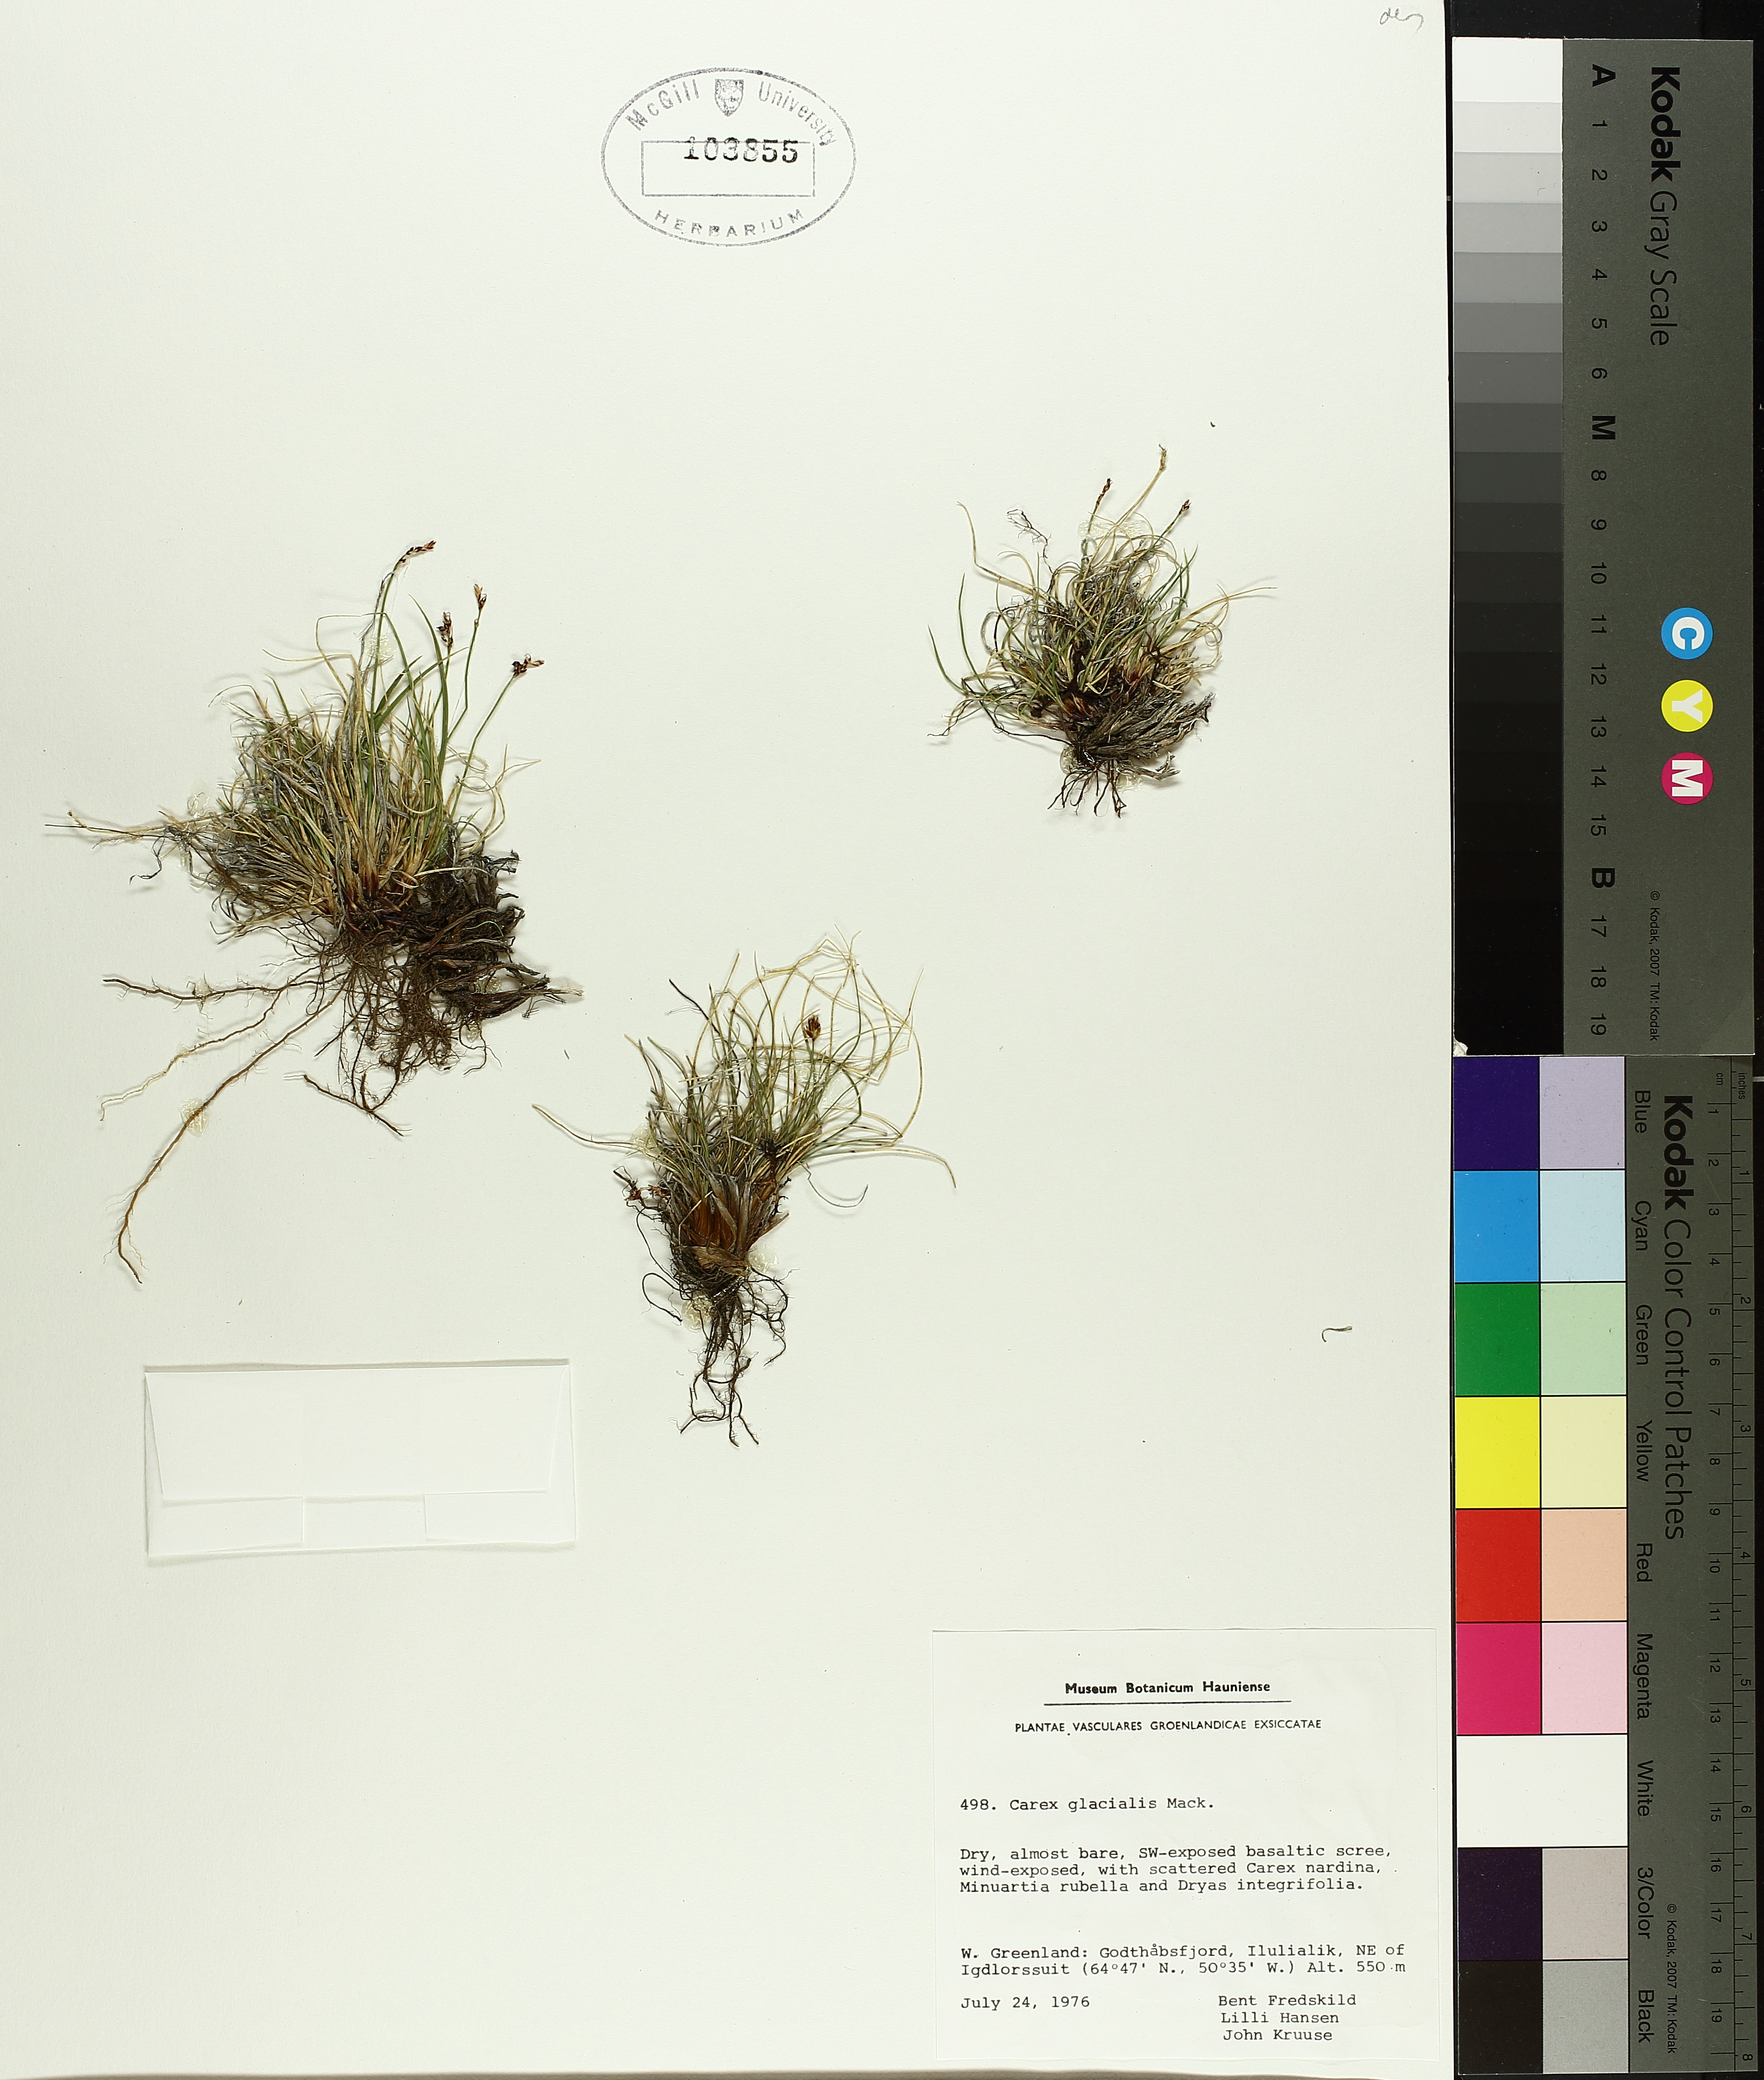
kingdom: Plantae
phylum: Tracheophyta
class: Liliopsida
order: Poales
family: Cyperaceae
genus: Carex
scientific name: Carex glacialis
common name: Newfoundland sedge
